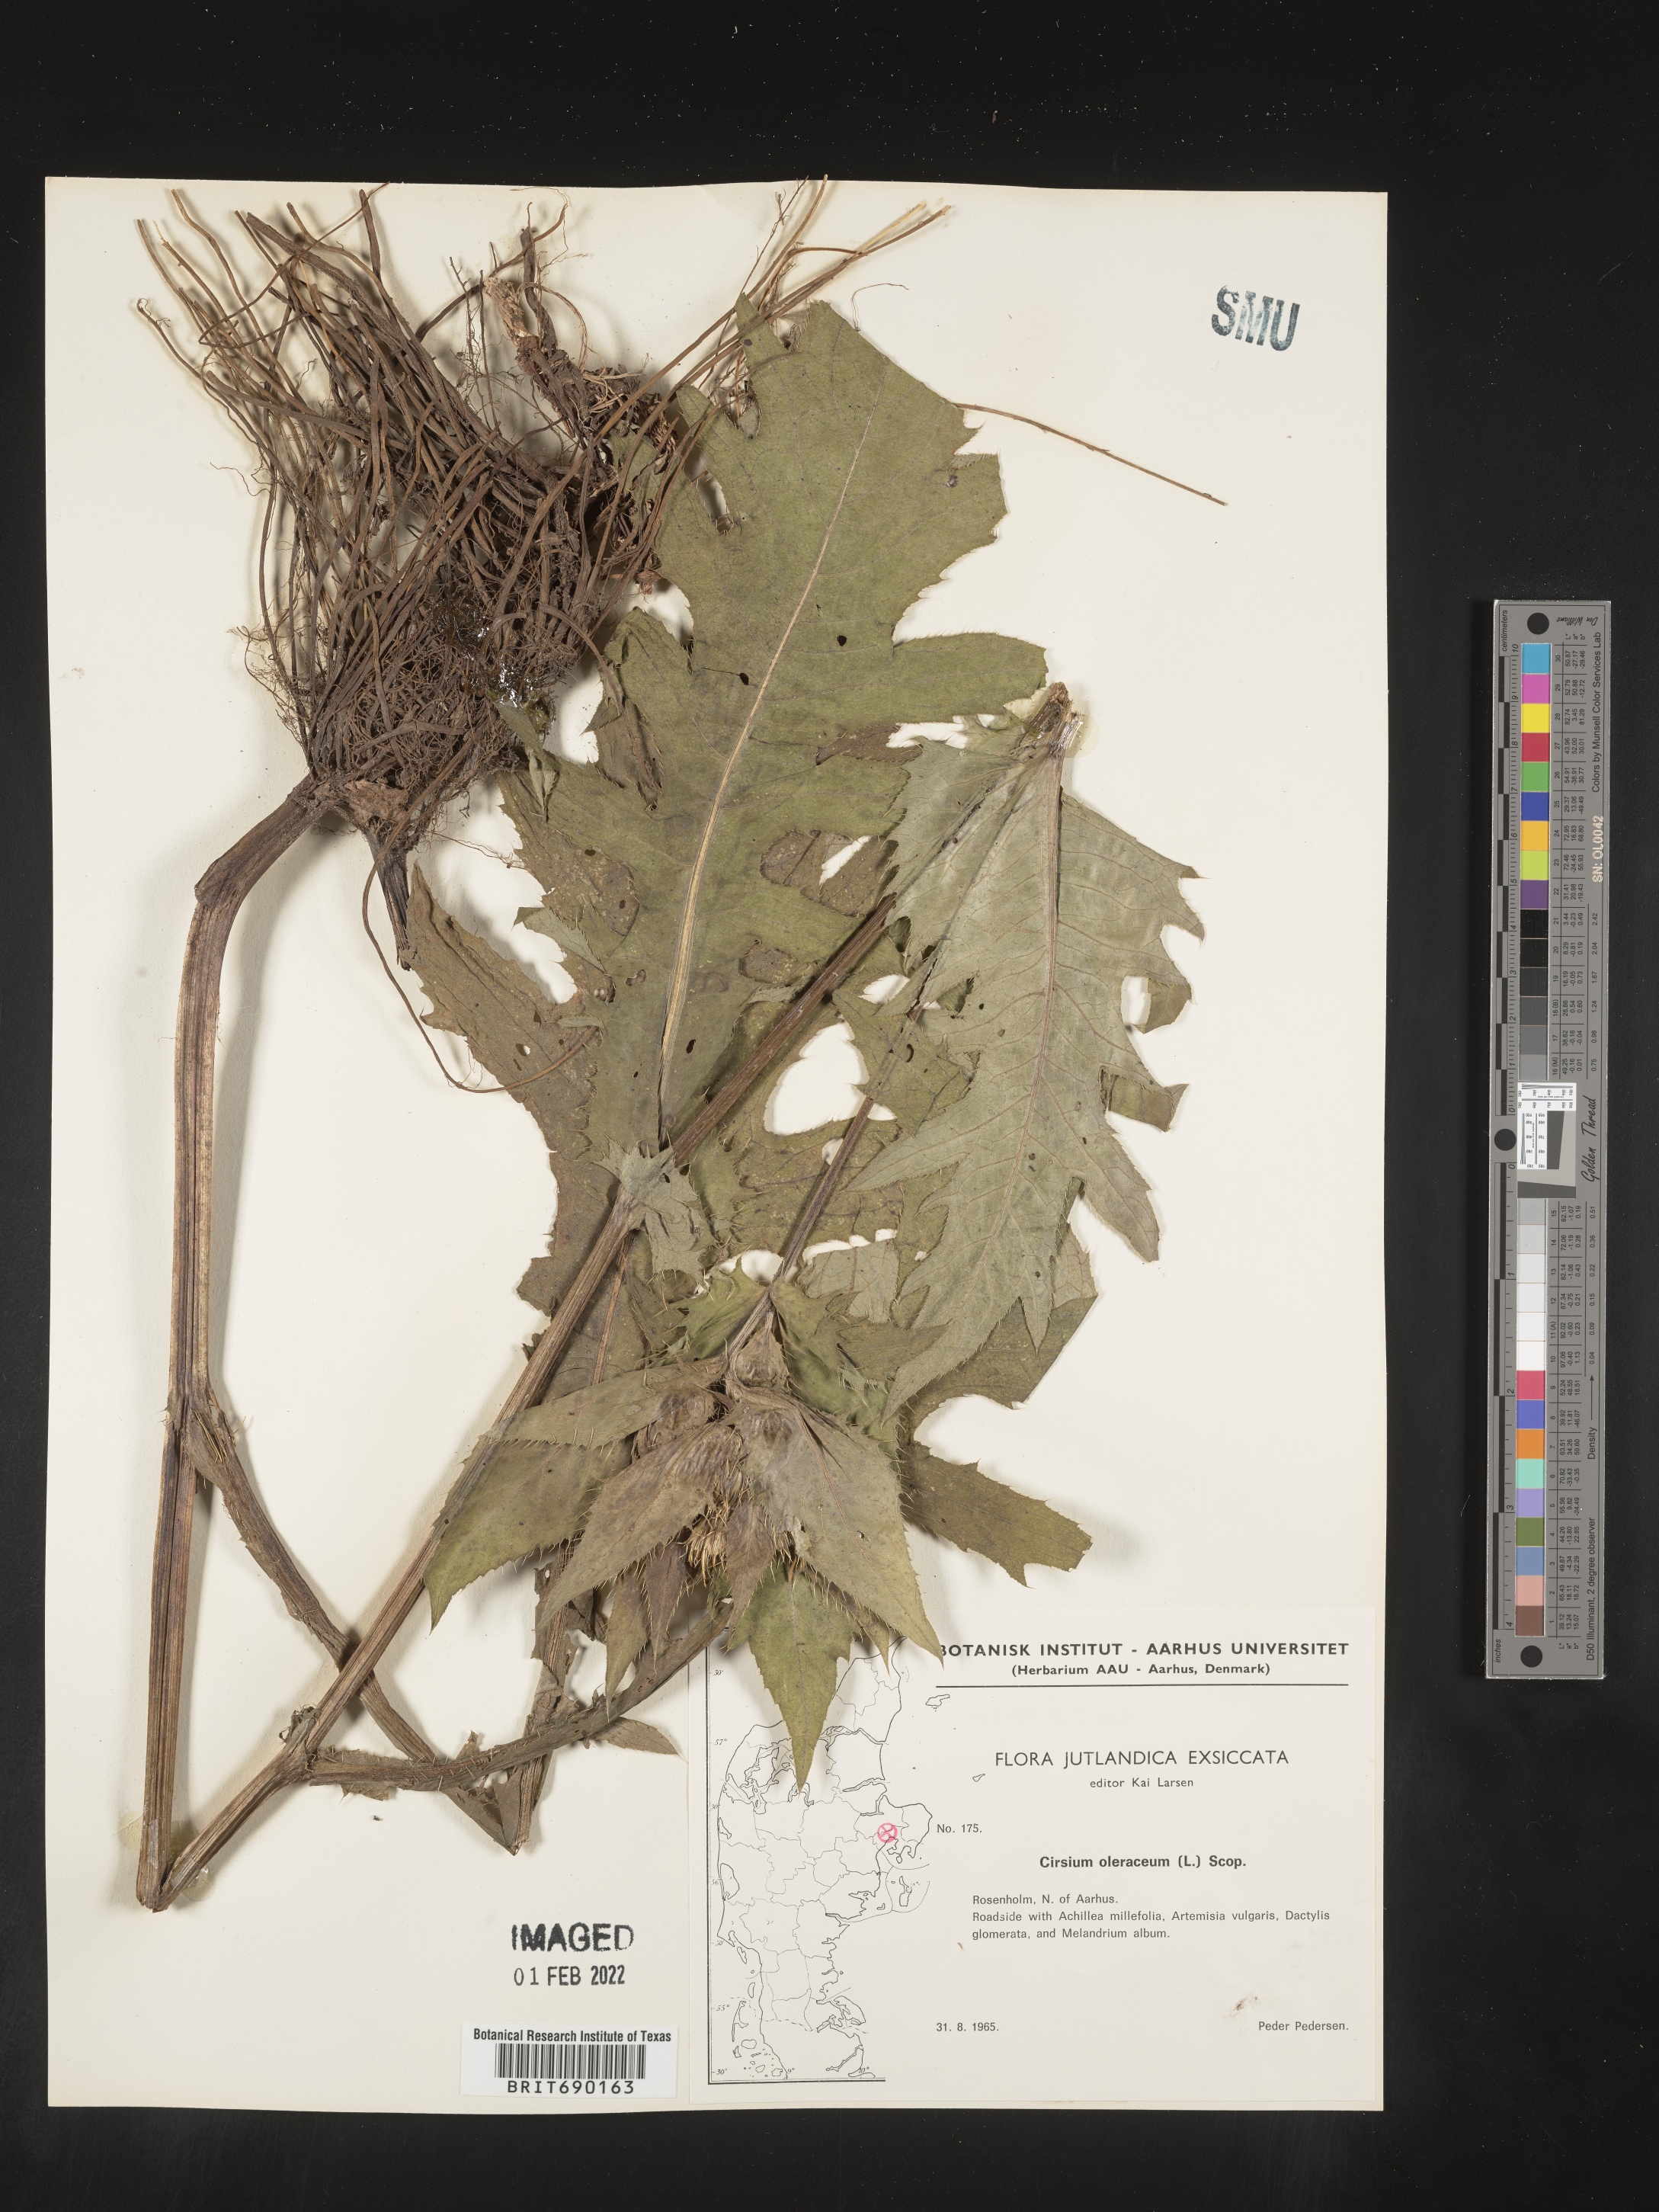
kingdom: Plantae
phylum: Tracheophyta
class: Magnoliopsida
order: Asterales
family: Asteraceae
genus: Cirsium
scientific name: Cirsium
